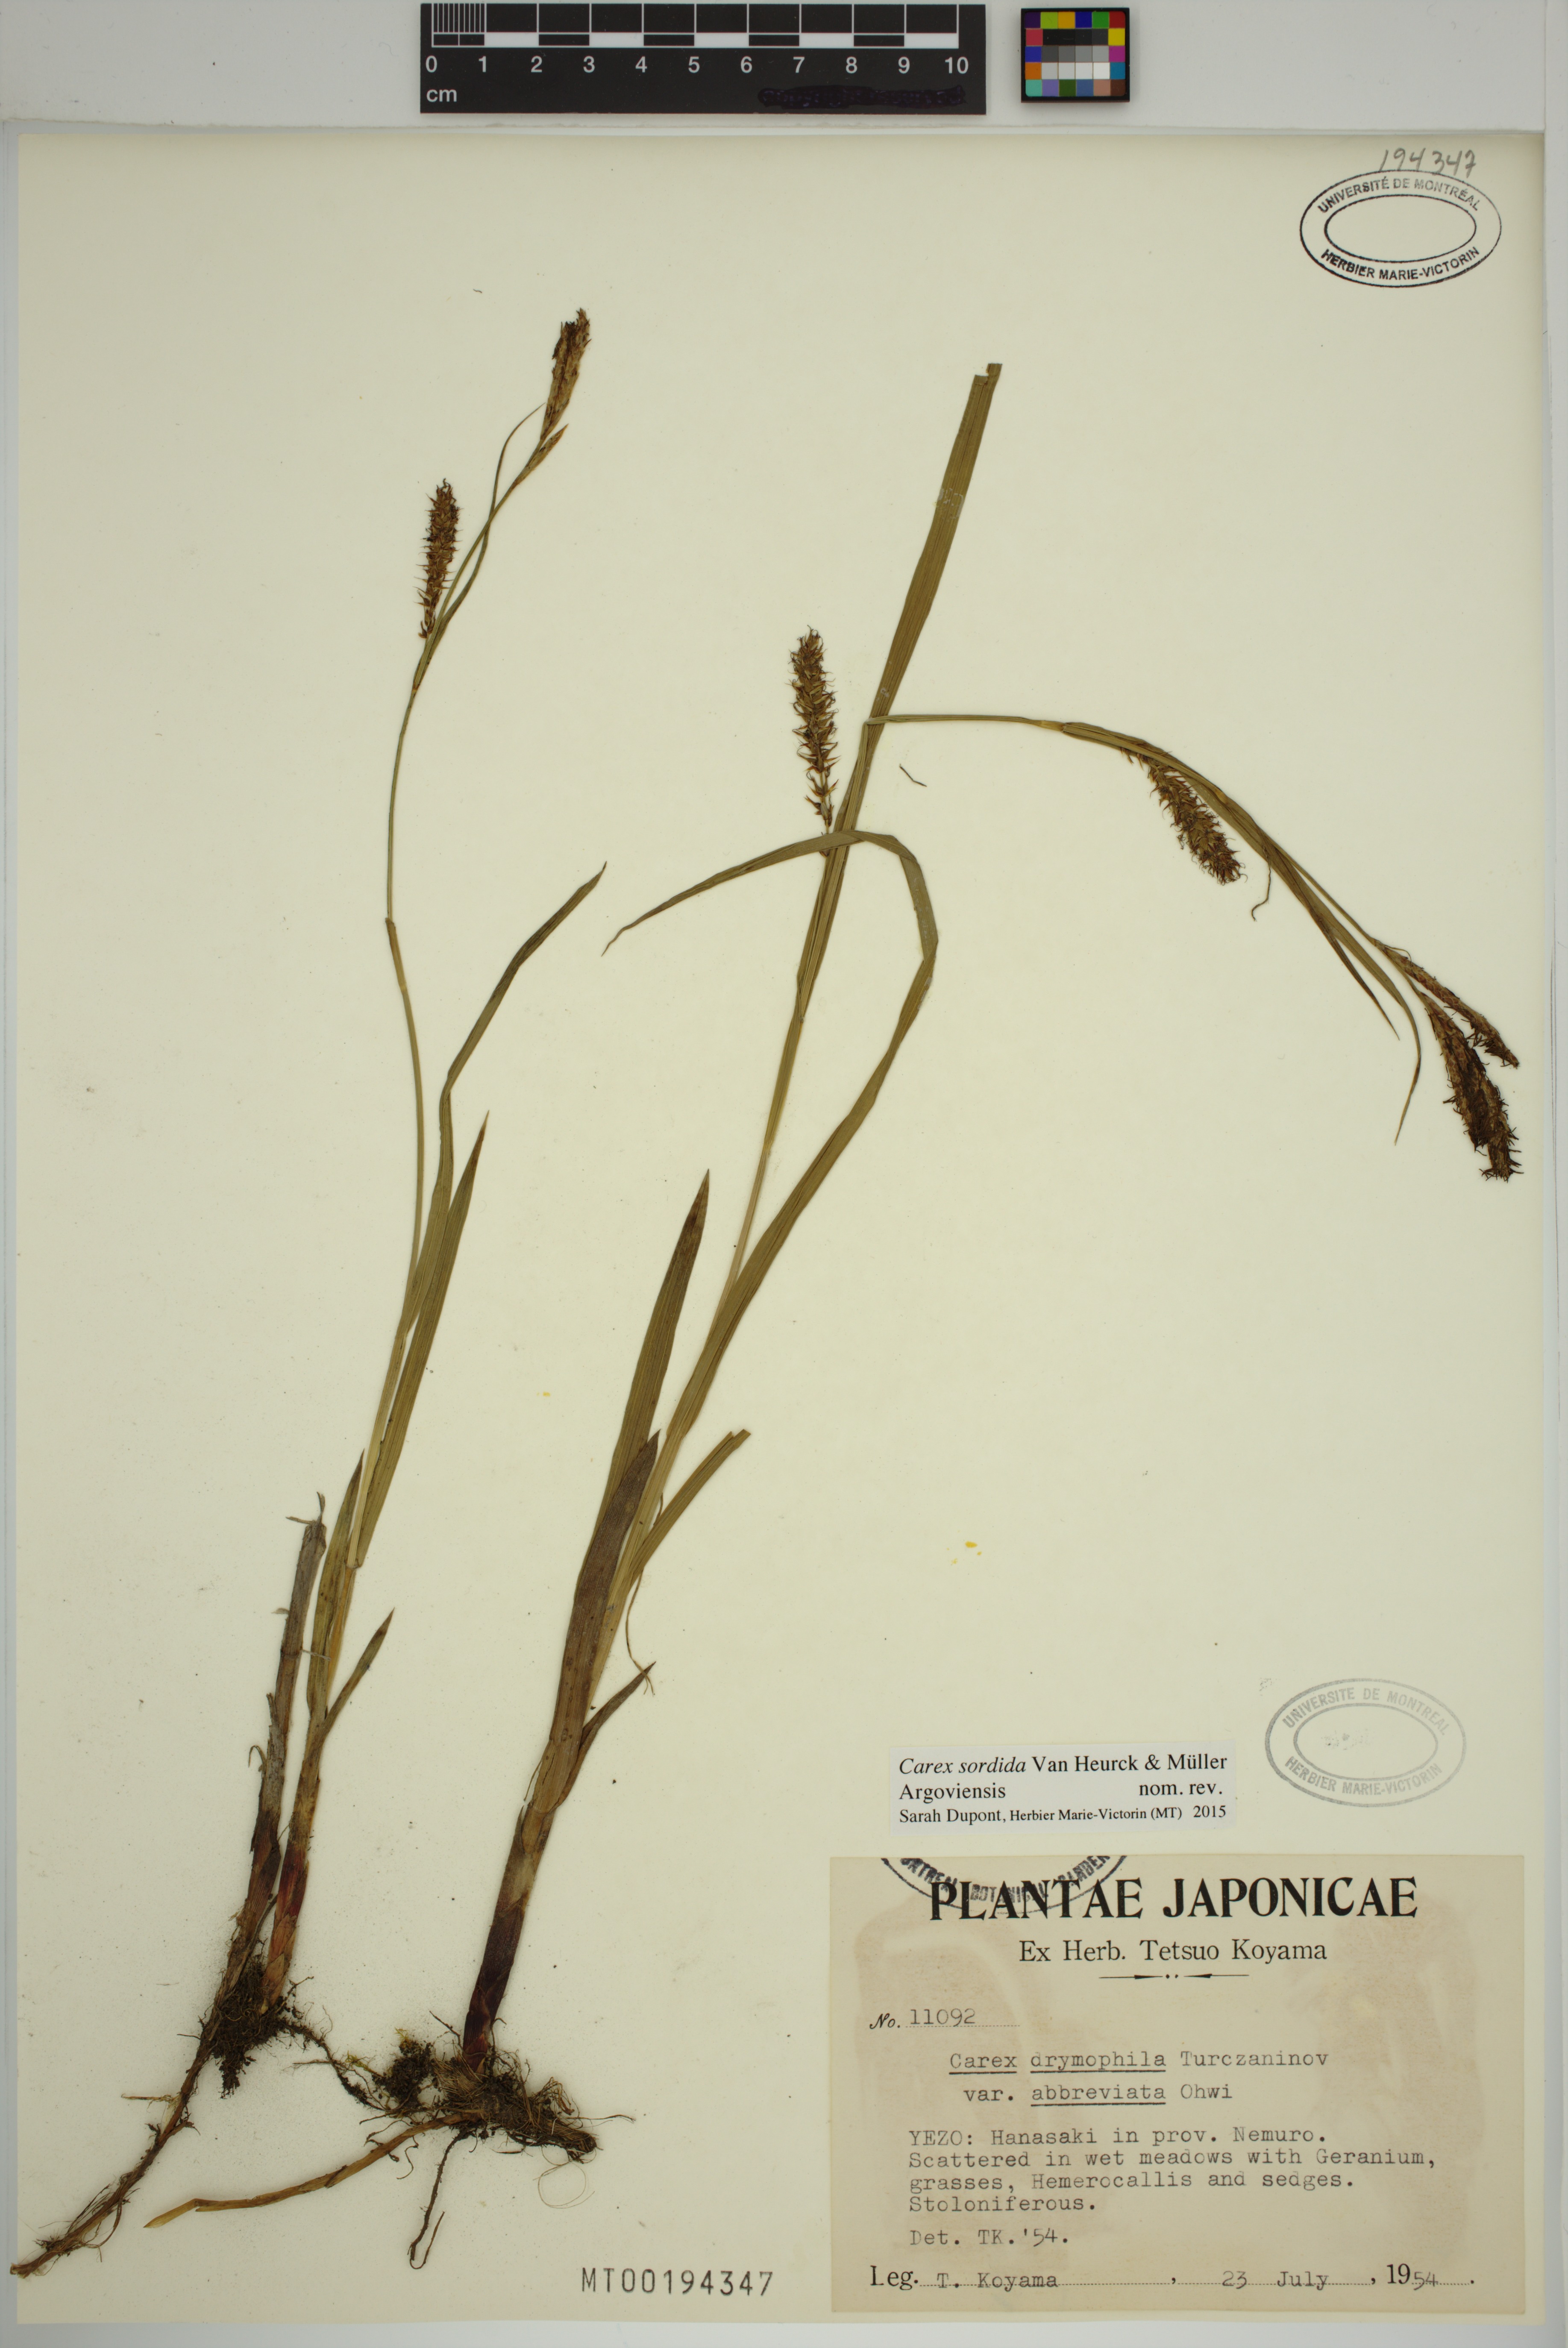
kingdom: Plantae
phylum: Tracheophyta
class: Liliopsida
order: Poales
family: Cyperaceae
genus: Carex
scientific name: Carex sordida
